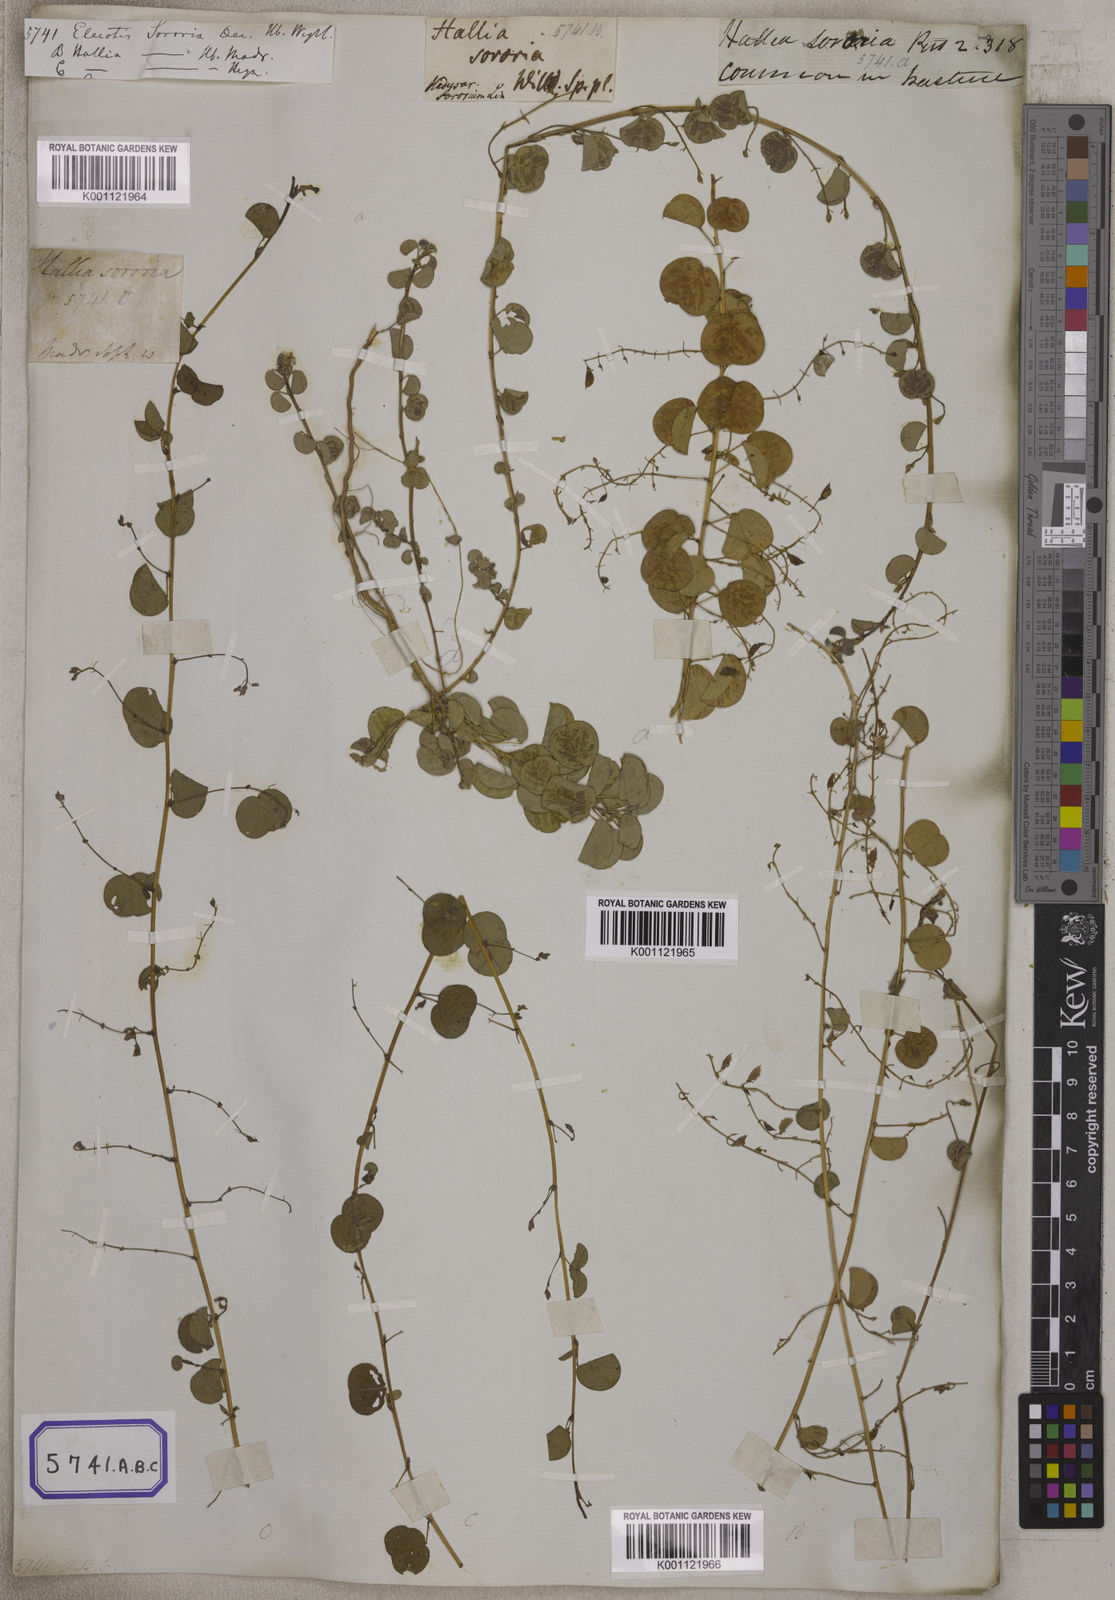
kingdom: Plantae
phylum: Tracheophyta
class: Magnoliopsida
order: Fabales
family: Fabaceae
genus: Eleiotis
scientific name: Eleiotis sororia
